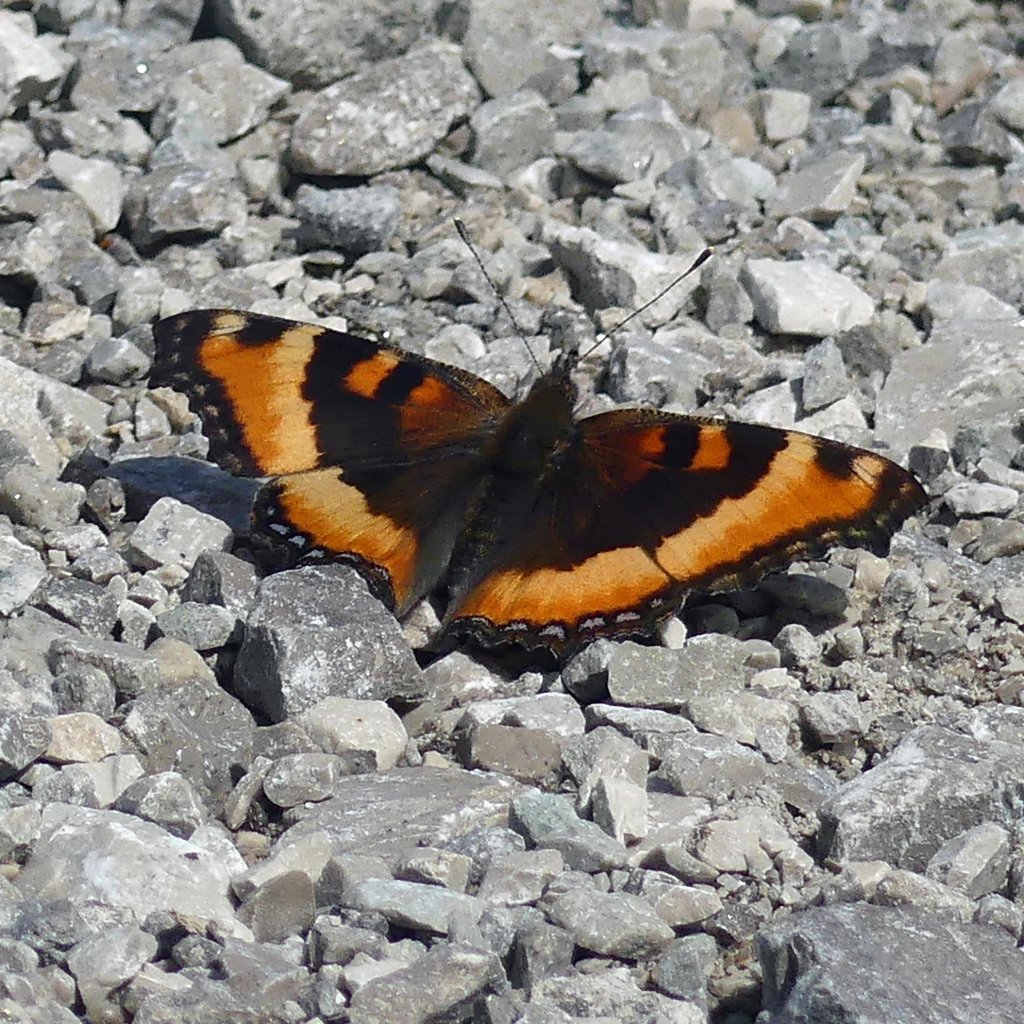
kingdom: Animalia
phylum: Arthropoda
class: Insecta
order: Lepidoptera
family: Nymphalidae
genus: Aglais
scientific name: Aglais milberti
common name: Milbert's Tortoiseshell
